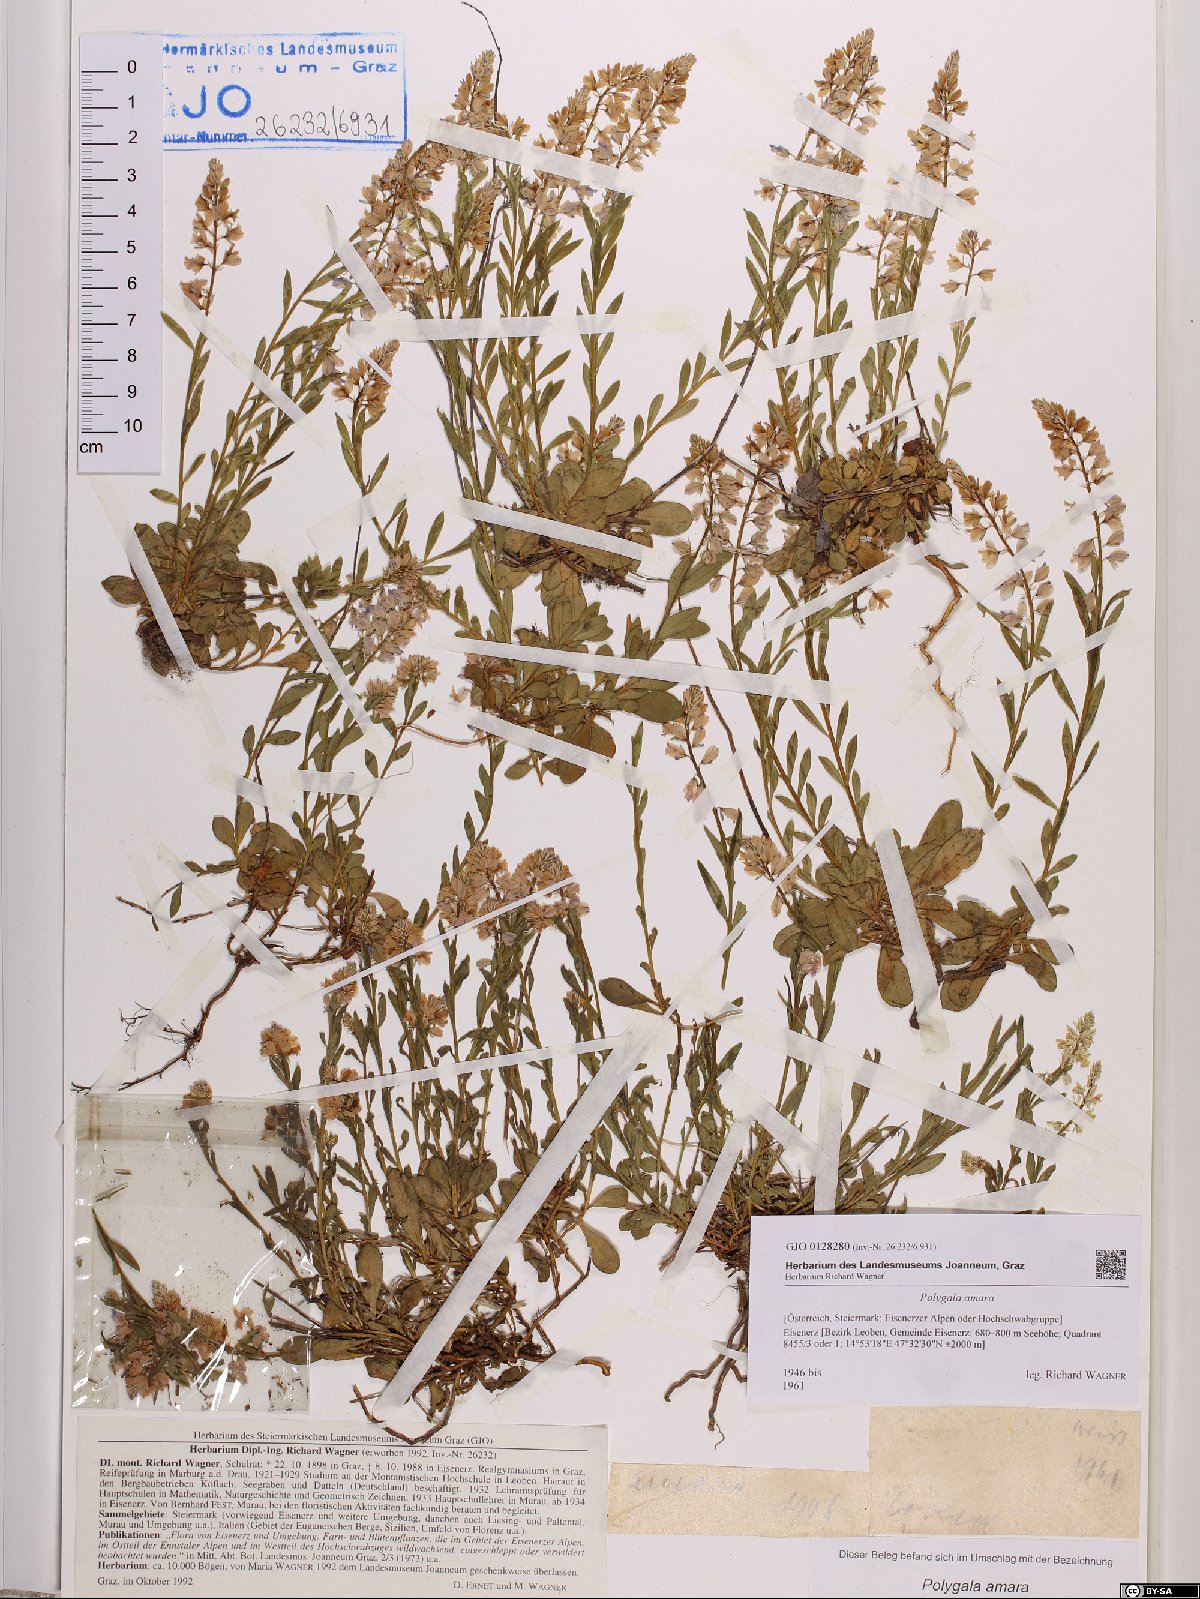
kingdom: Plantae
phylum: Tracheophyta
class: Magnoliopsida
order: Fabales
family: Polygalaceae
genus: Polygala
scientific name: Polygala amara
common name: Milkwort
